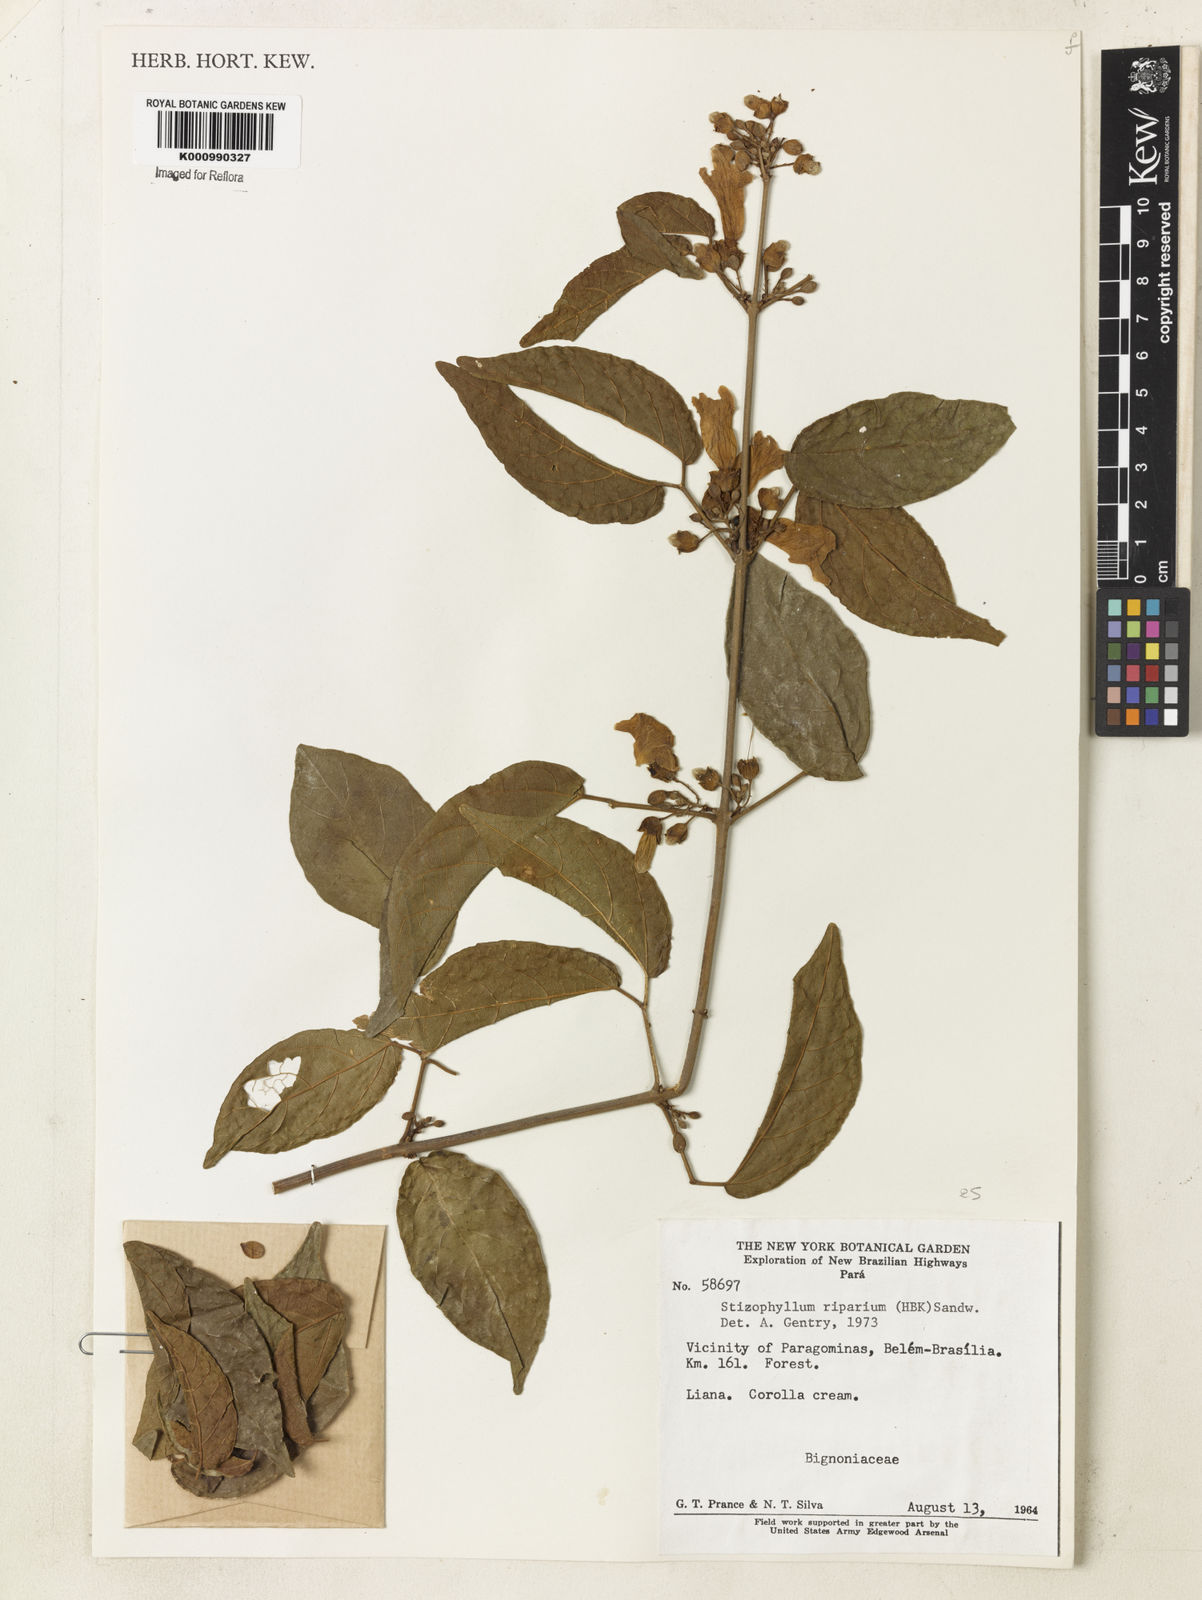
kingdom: Plantae
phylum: Tracheophyta
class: Magnoliopsida
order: Lamiales
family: Bignoniaceae
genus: Stizophyllum
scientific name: Stizophyllum riparium
